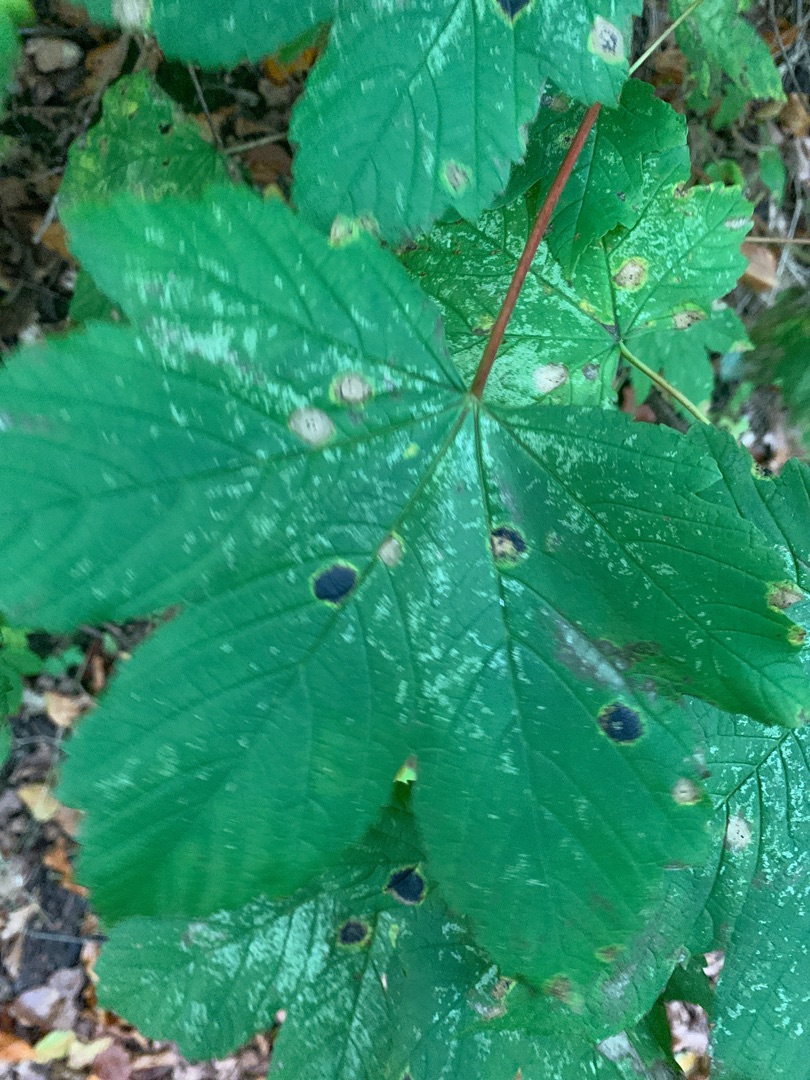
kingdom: Plantae
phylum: Tracheophyta
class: Magnoliopsida
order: Sapindales
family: Sapindaceae
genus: Acer
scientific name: Acer pseudoplatanus
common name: Ahorn
